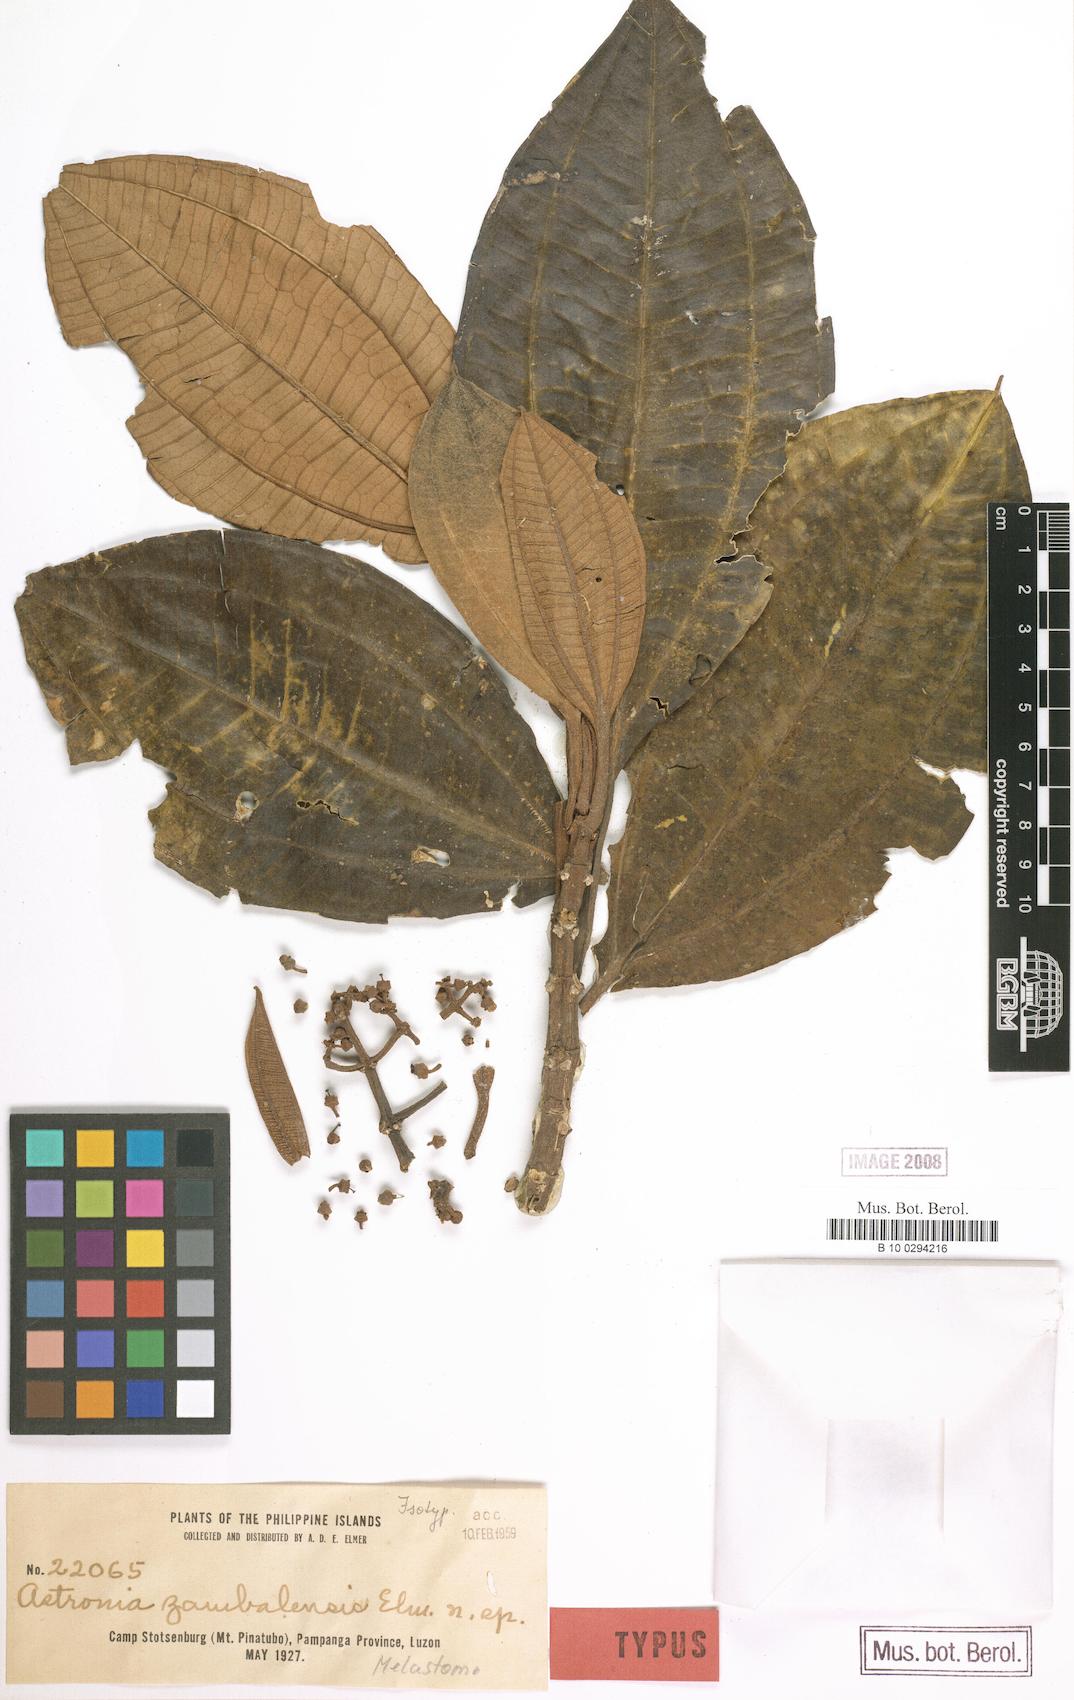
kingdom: Plantae
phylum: Tracheophyta
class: Magnoliopsida
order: Myrtales
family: Melastomataceae
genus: Astronia
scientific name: Astronia candolleana
